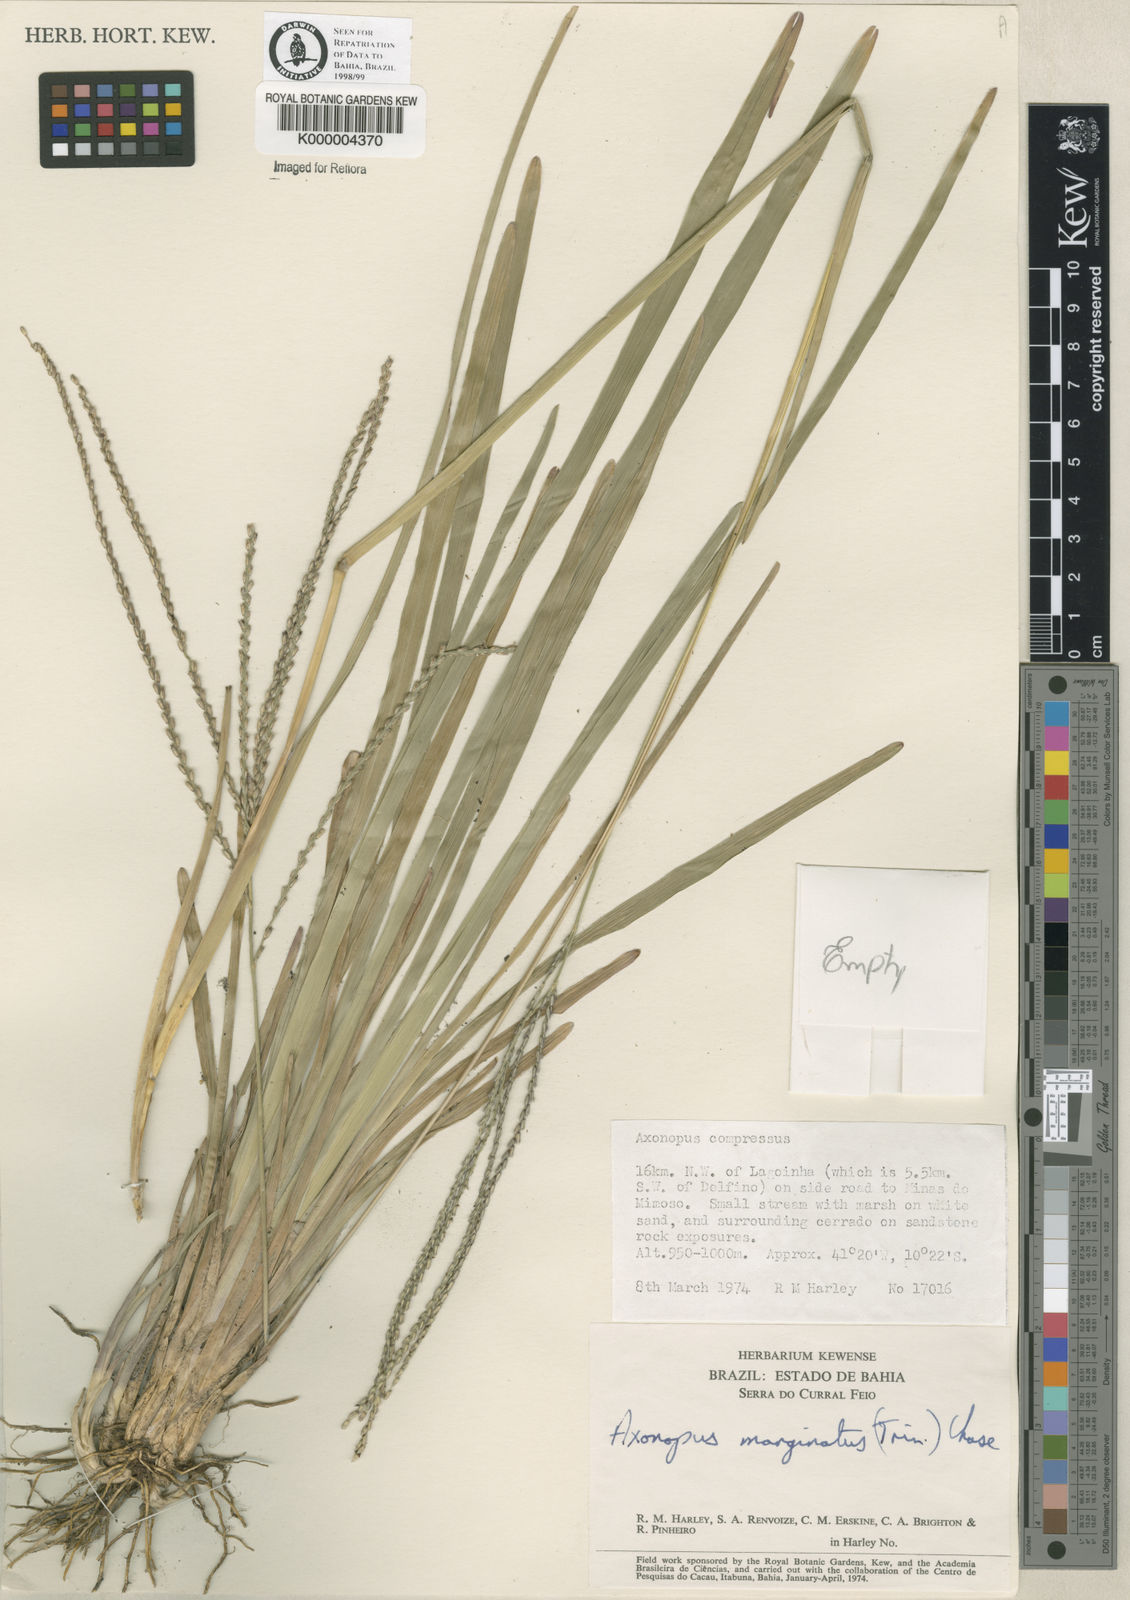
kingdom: Plantae
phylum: Tracheophyta
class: Liliopsida
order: Poales
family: Poaceae
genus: Axonopus
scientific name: Axonopus
